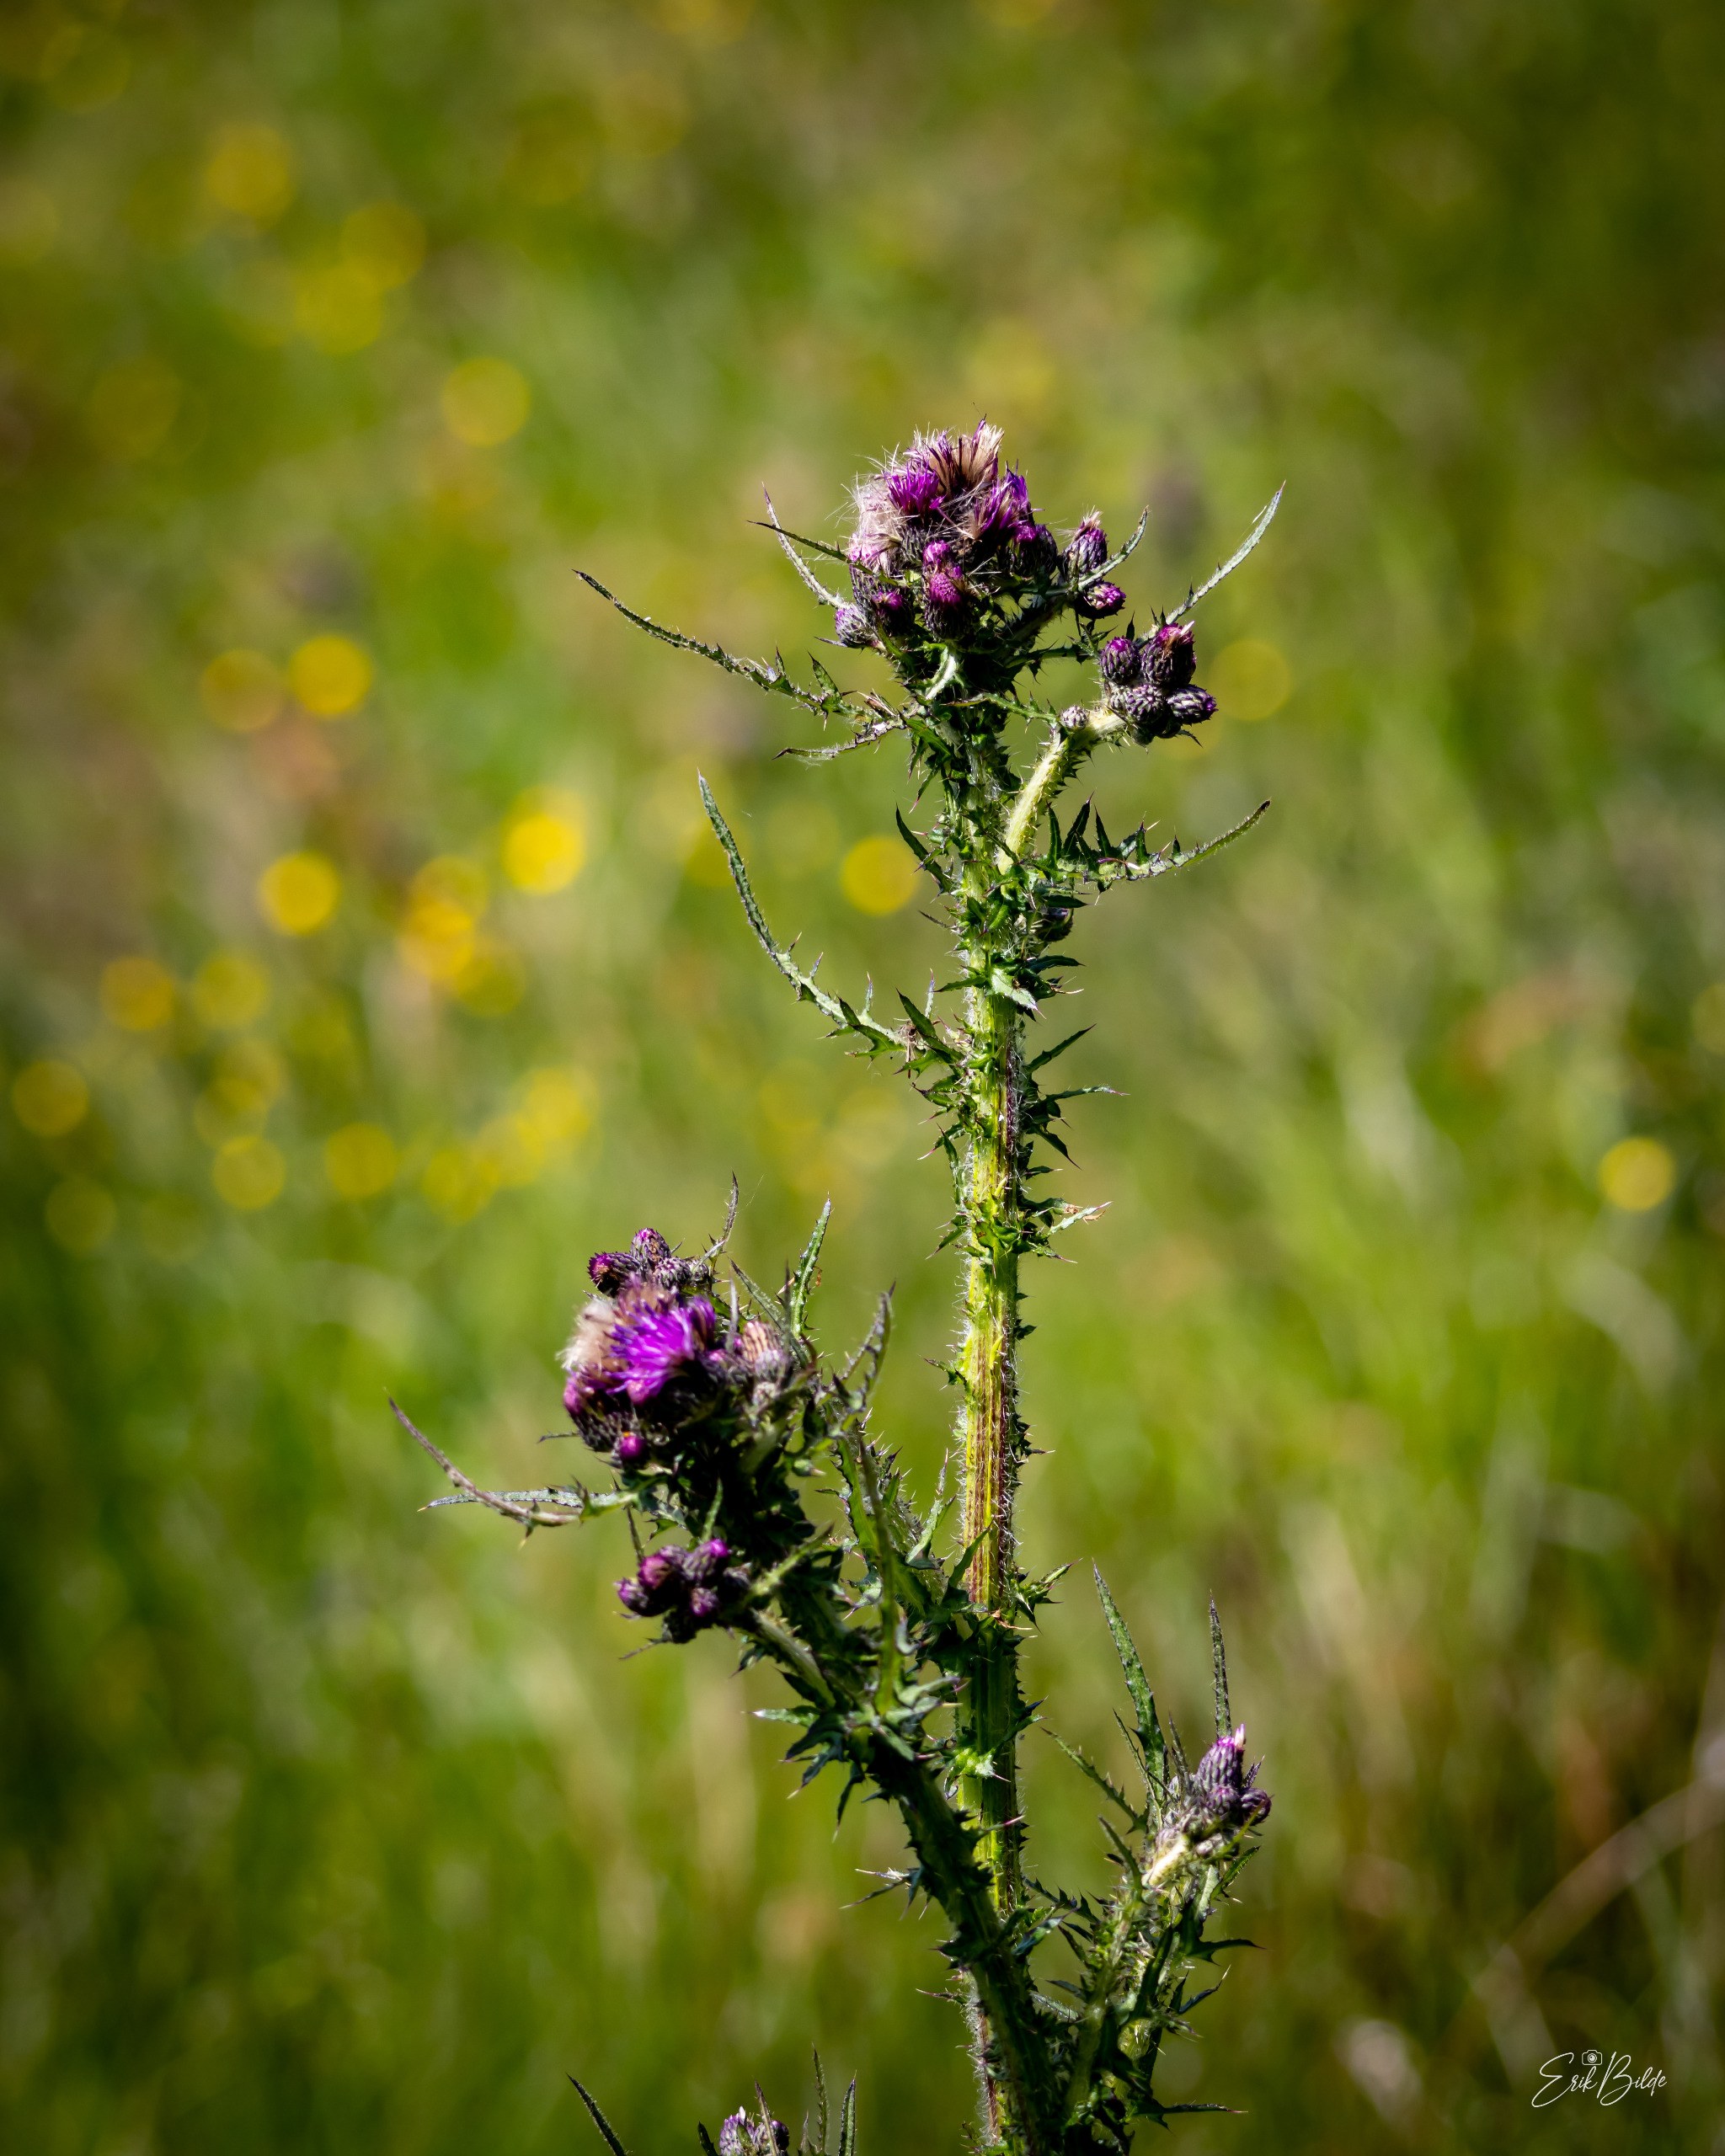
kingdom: Plantae
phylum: Tracheophyta
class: Magnoliopsida
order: Asterales
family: Asteraceae
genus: Cirsium
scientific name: Cirsium palustre
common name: Kær-tidsel
